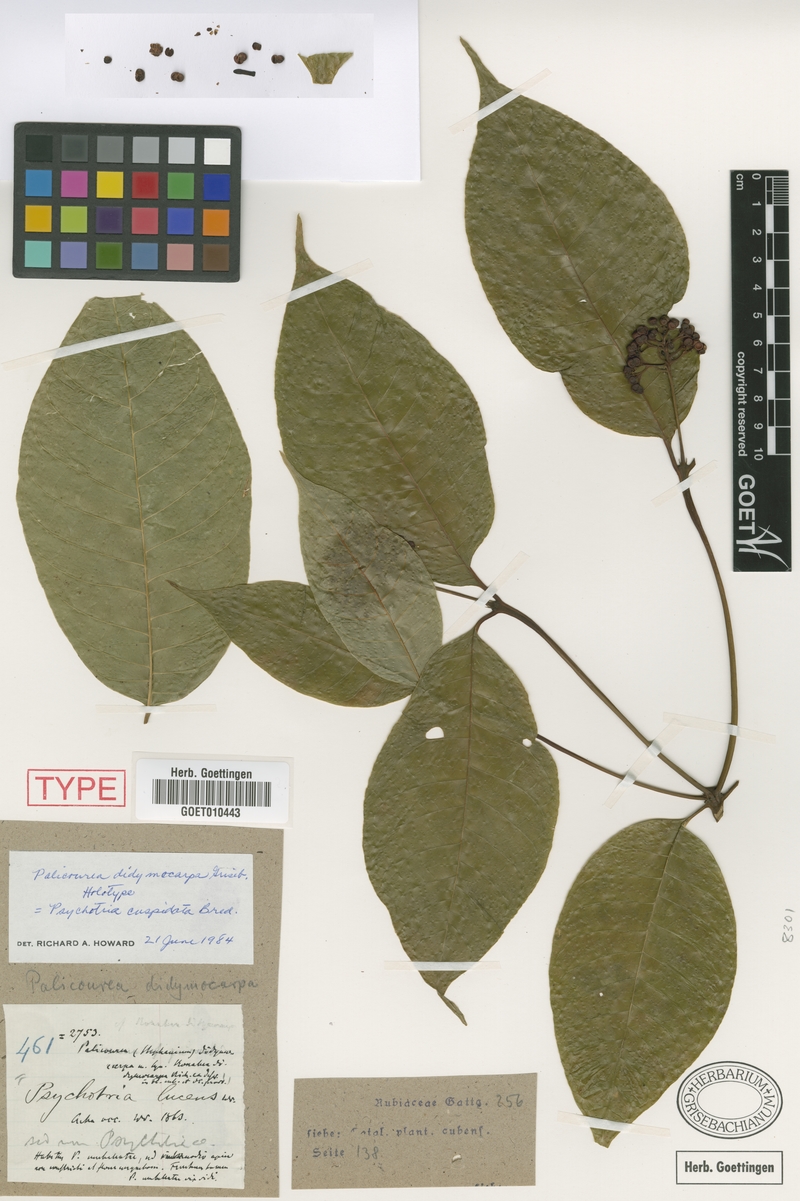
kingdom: Plantae
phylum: Tracheophyta
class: Magnoliopsida
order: Gentianales
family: Rubiaceae
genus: Palicourea
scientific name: Palicourea cuspidata
